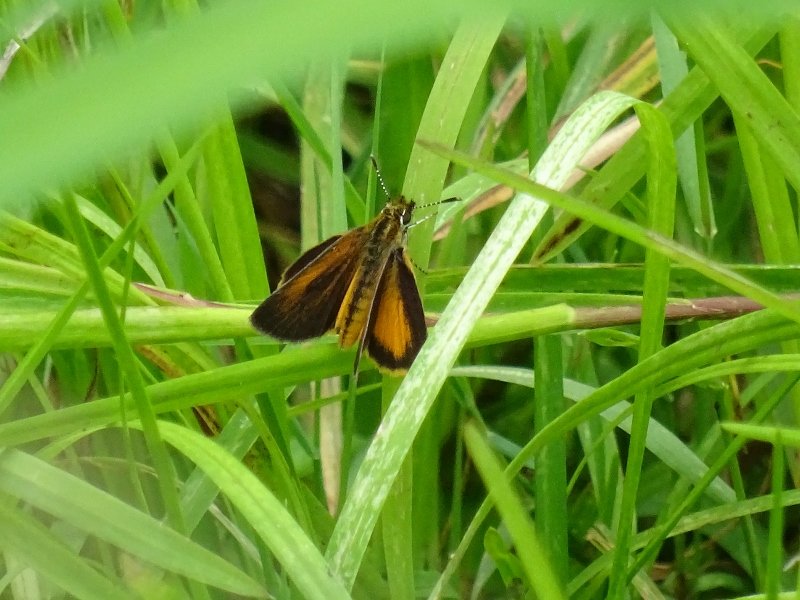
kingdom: Animalia
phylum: Arthropoda
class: Insecta
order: Lepidoptera
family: Hesperiidae
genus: Ancyloxypha
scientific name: Ancyloxypha numitor
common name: Least Skipper
